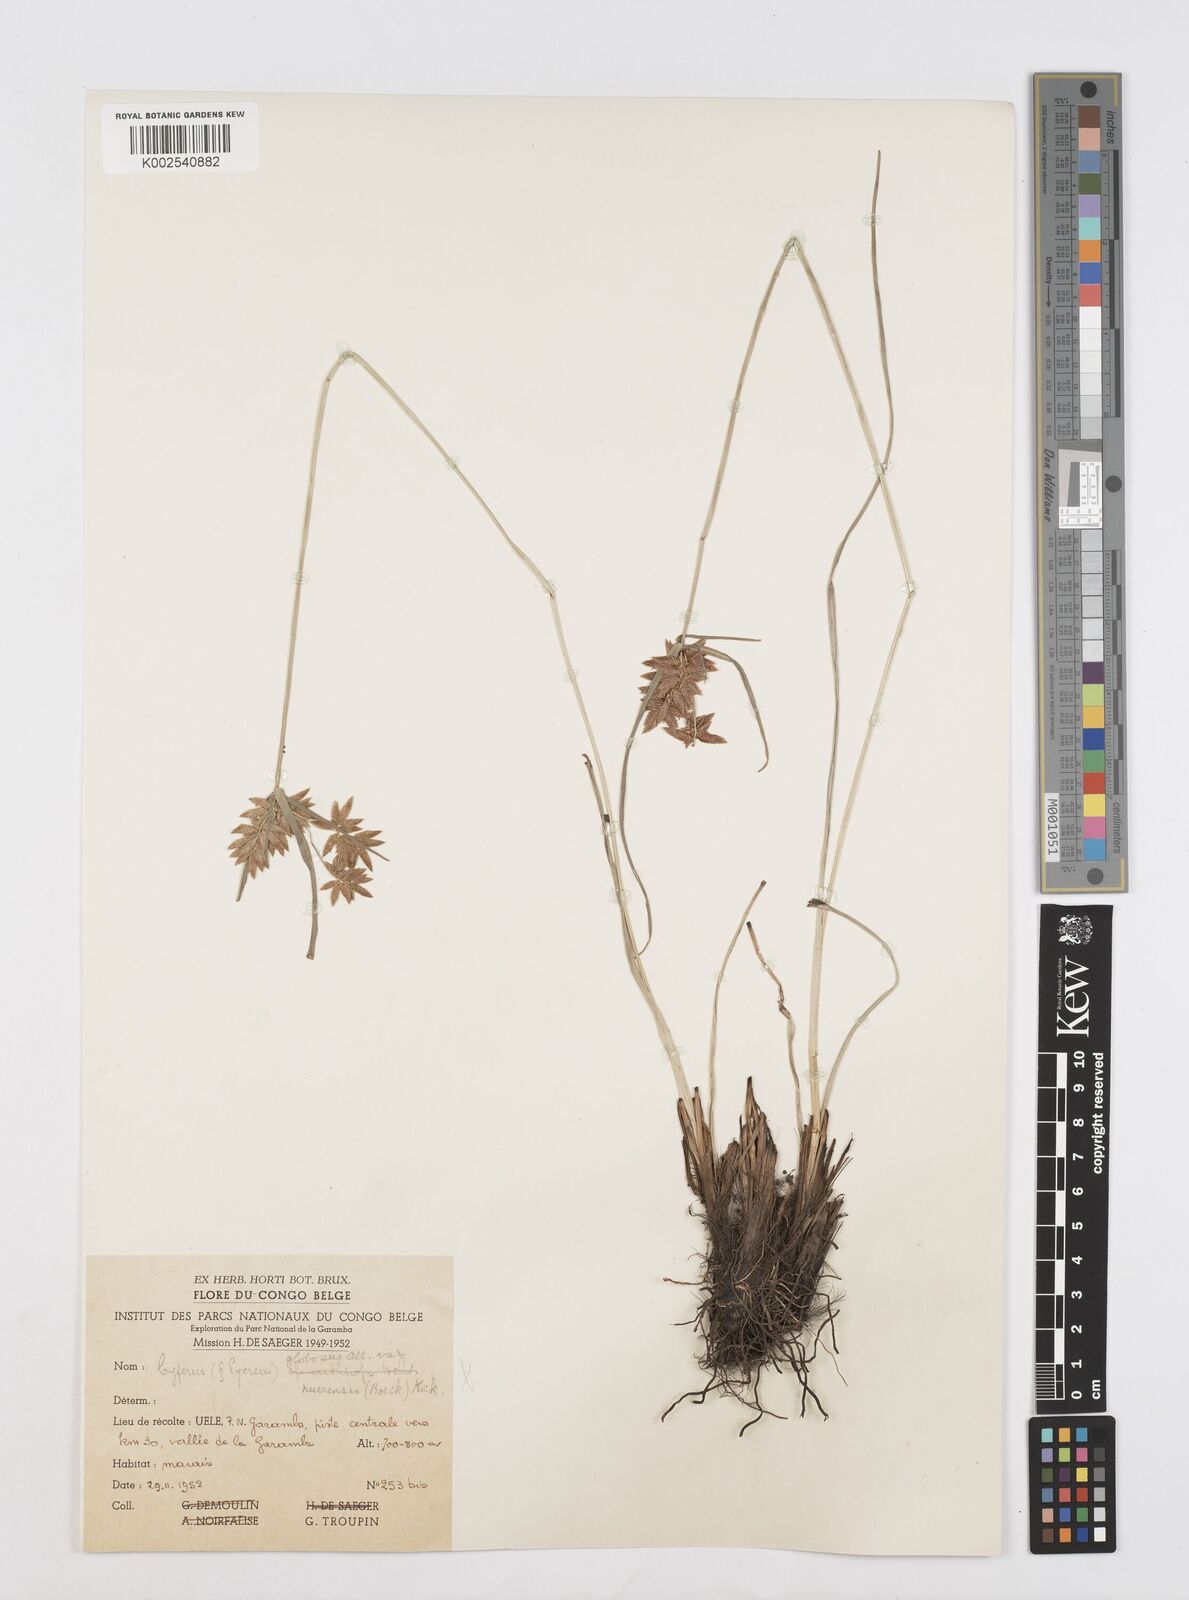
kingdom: Plantae
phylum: Tracheophyta
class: Liliopsida
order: Poales
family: Cyperaceae
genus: Cyperus
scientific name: Cyperus nigricans
